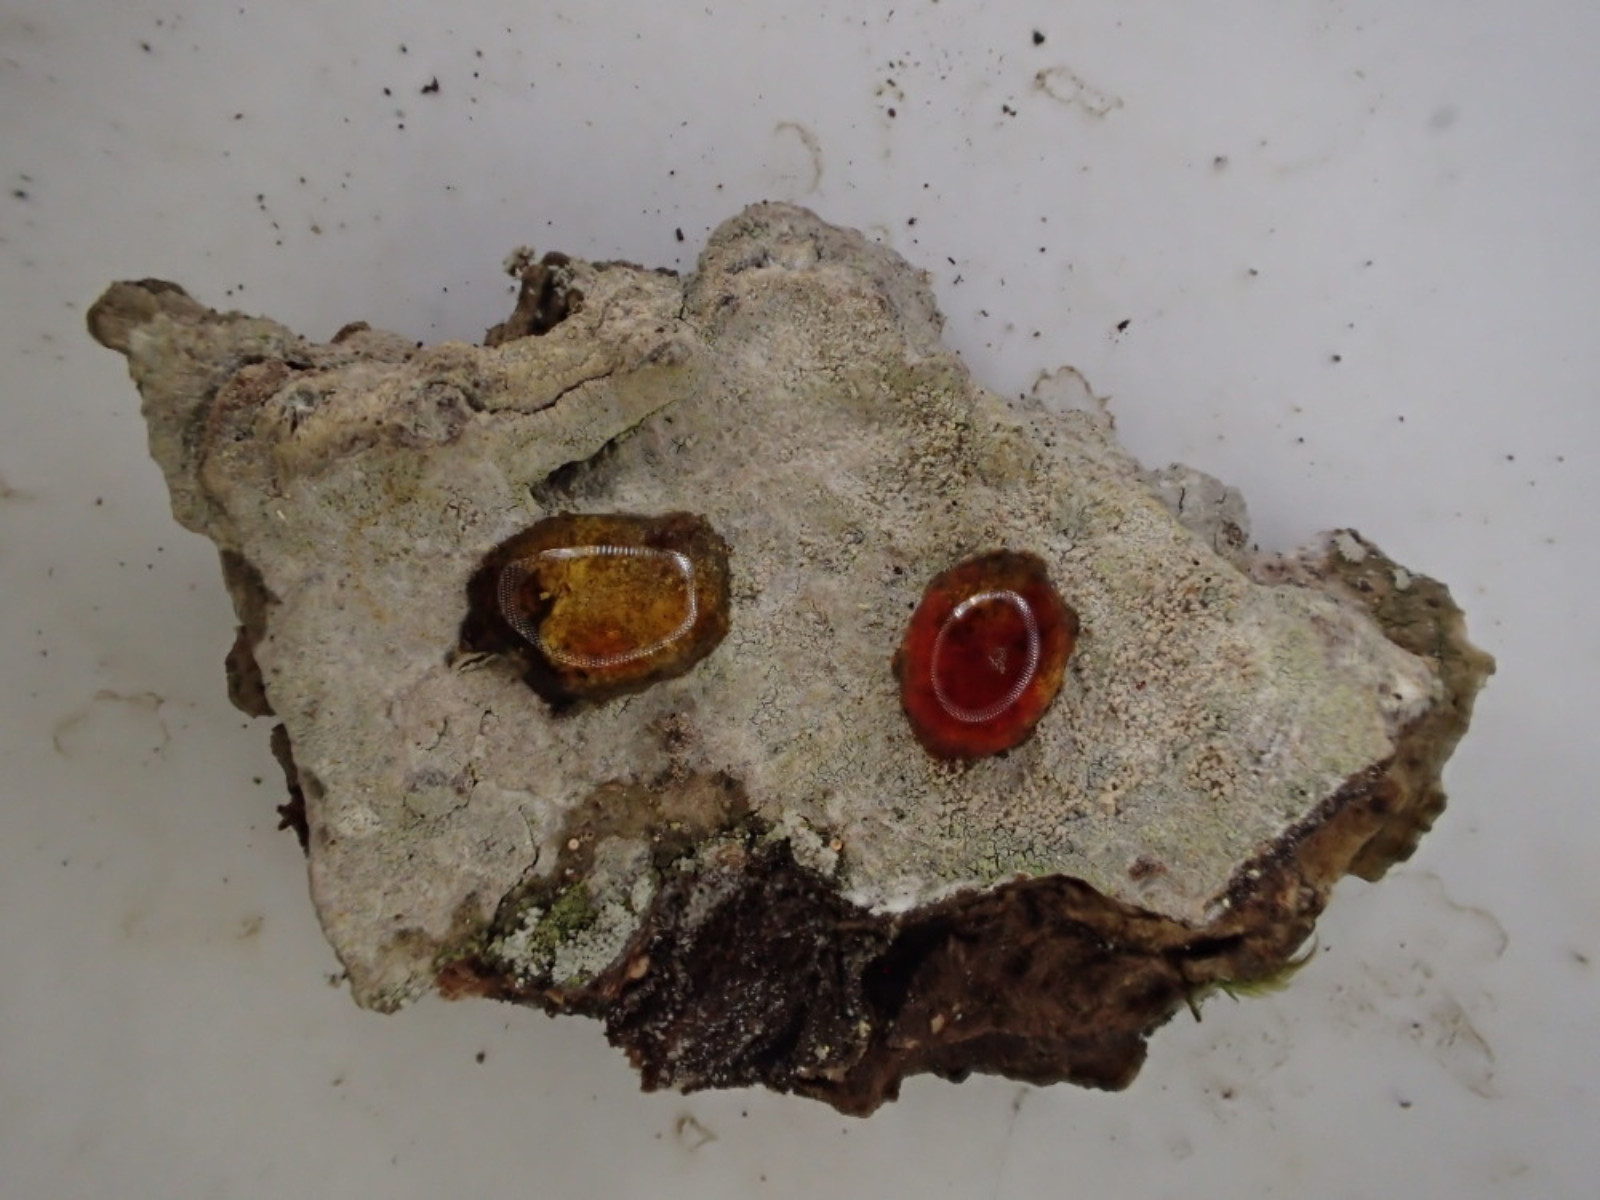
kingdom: Fungi
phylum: Ascomycota
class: Lecanoromycetes
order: Ostropales
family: Phlyctidaceae
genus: Phlyctis
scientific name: Phlyctis argena
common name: almindelig sølvlav
